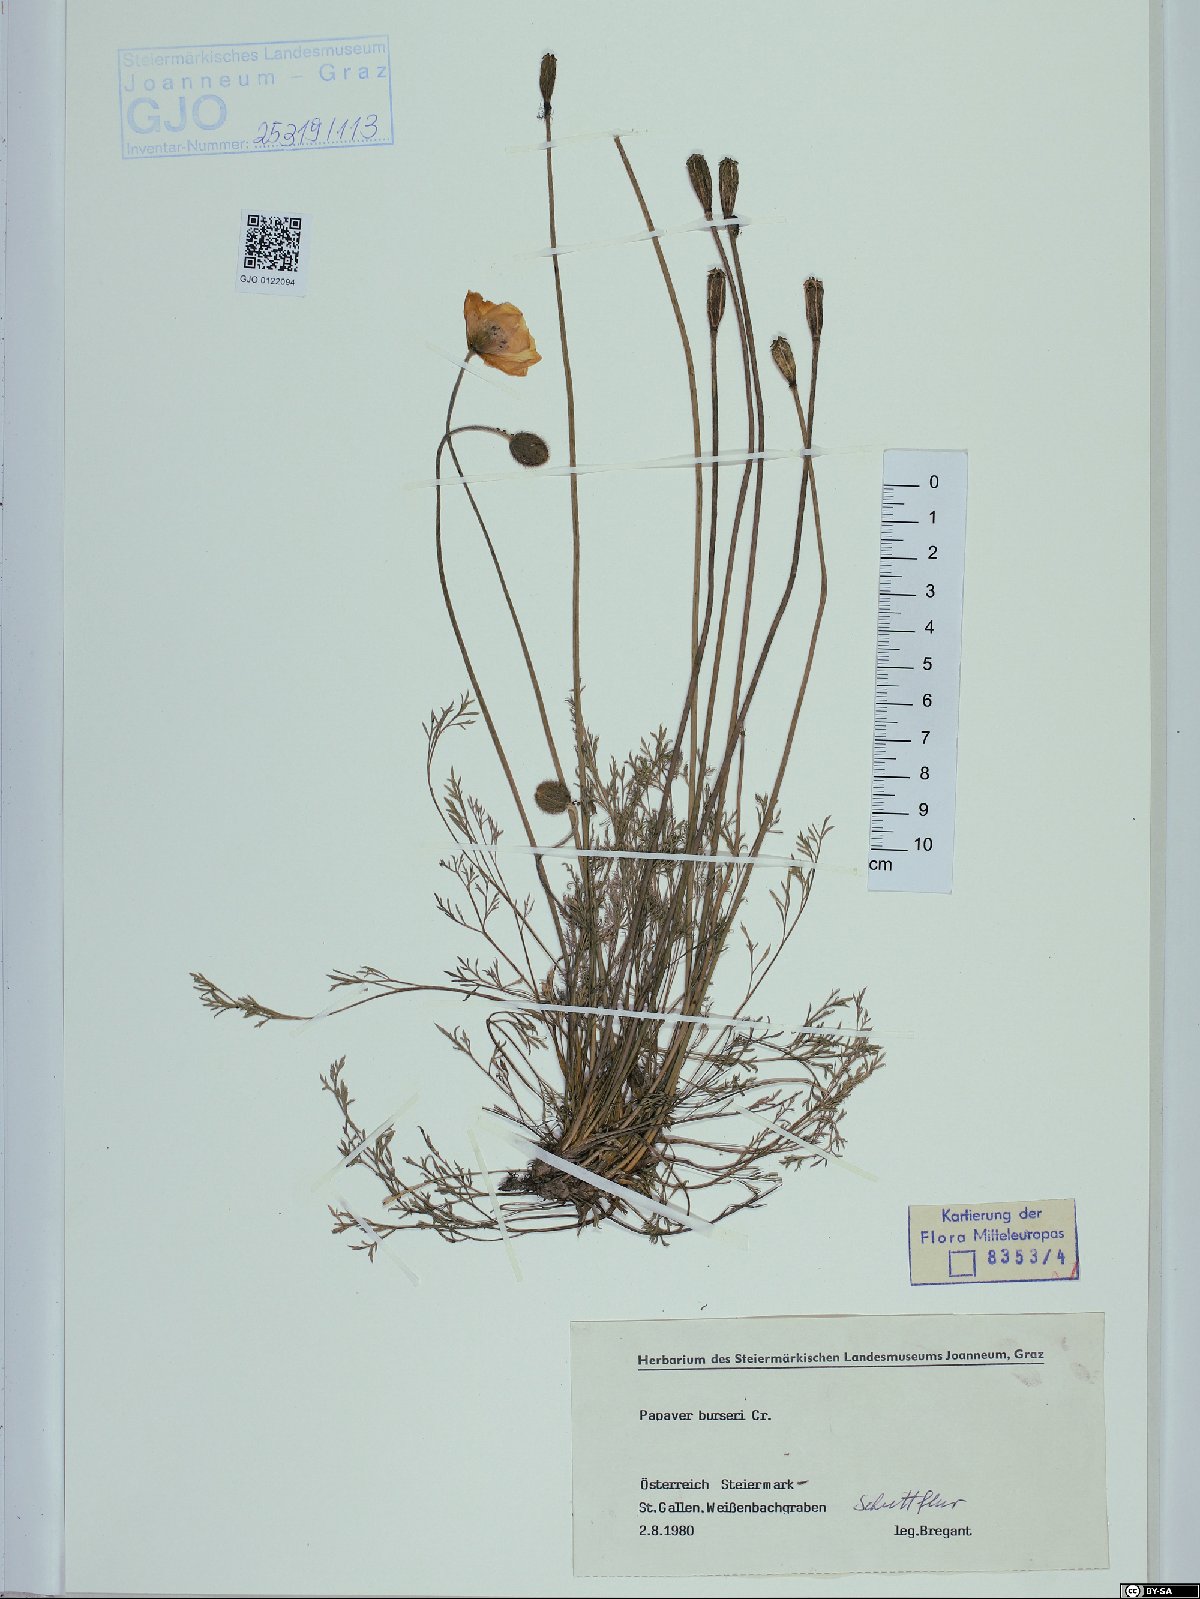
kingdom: Plantae
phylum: Tracheophyta
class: Magnoliopsida
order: Ranunculales
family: Papaveraceae
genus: Papaver
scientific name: Papaver alpinum
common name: Austrian poppy
